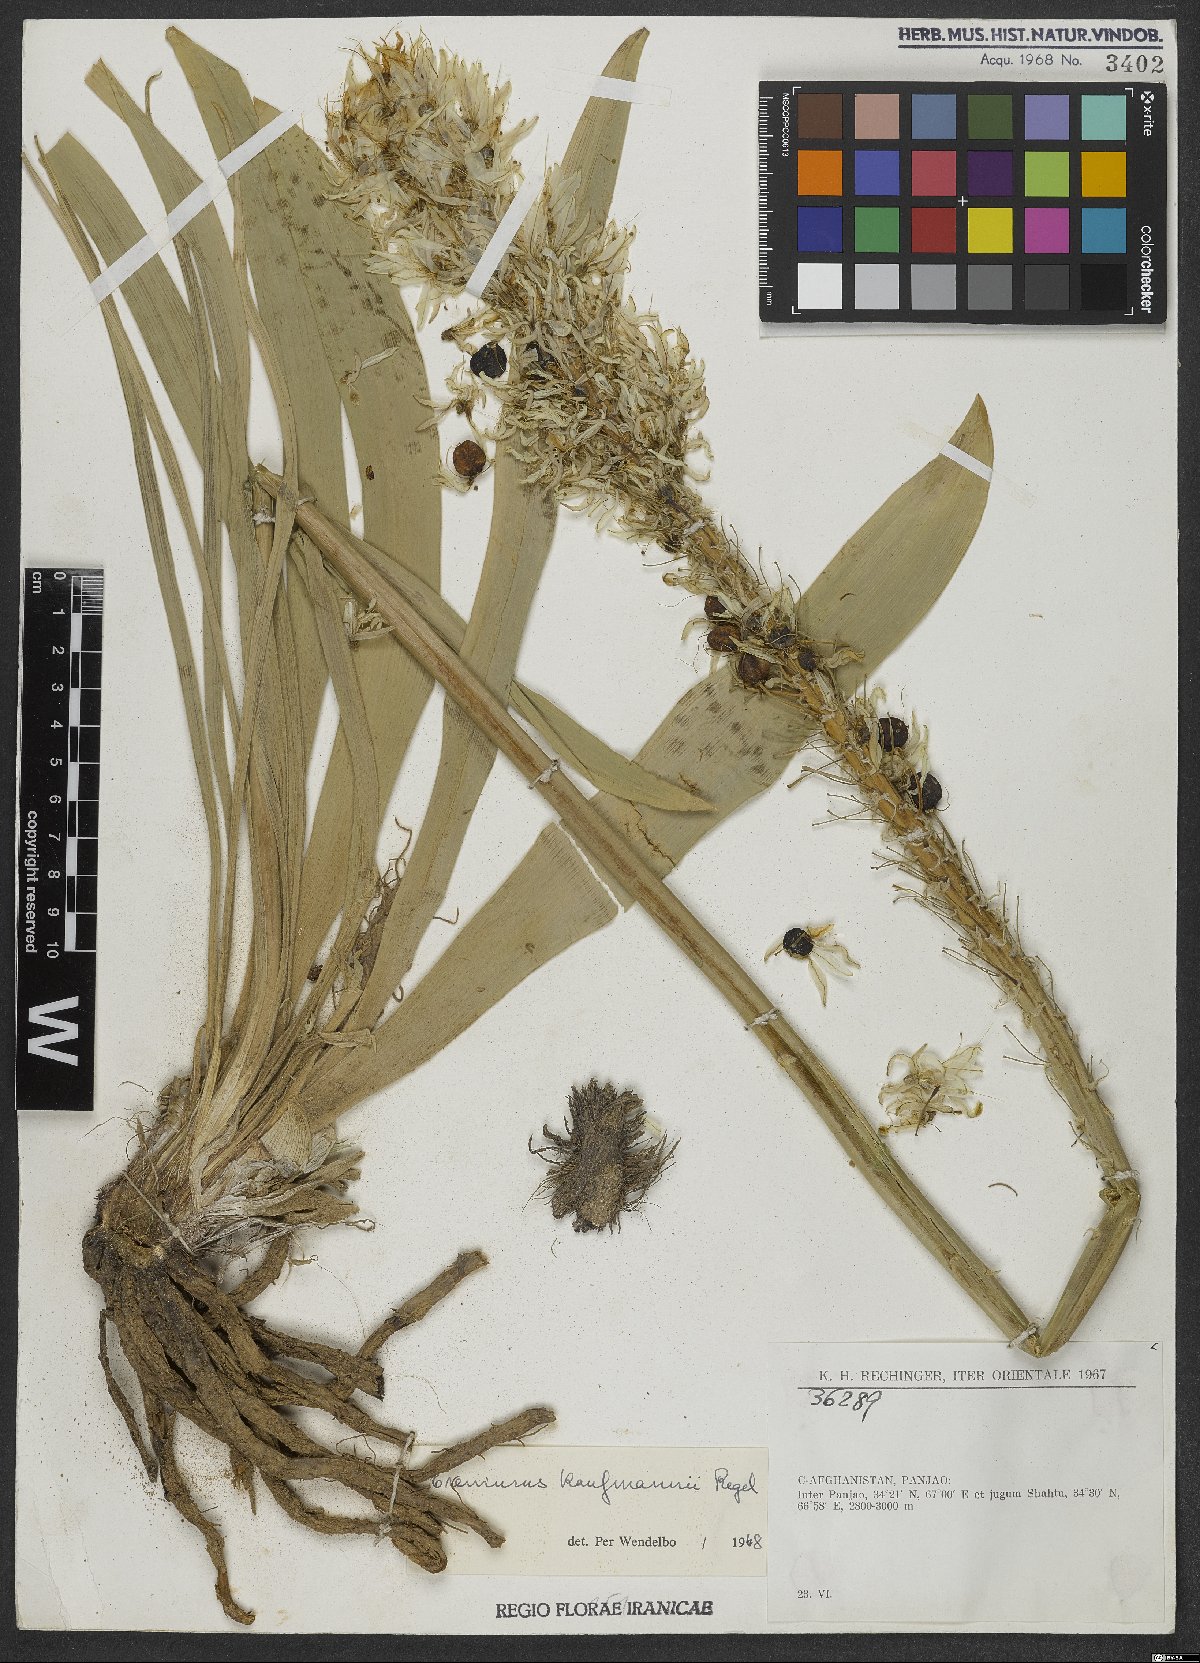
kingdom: Plantae
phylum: Tracheophyta
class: Liliopsida
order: Asparagales
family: Asphodelaceae
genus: Eremurus
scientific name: Eremurus kaufmannii
